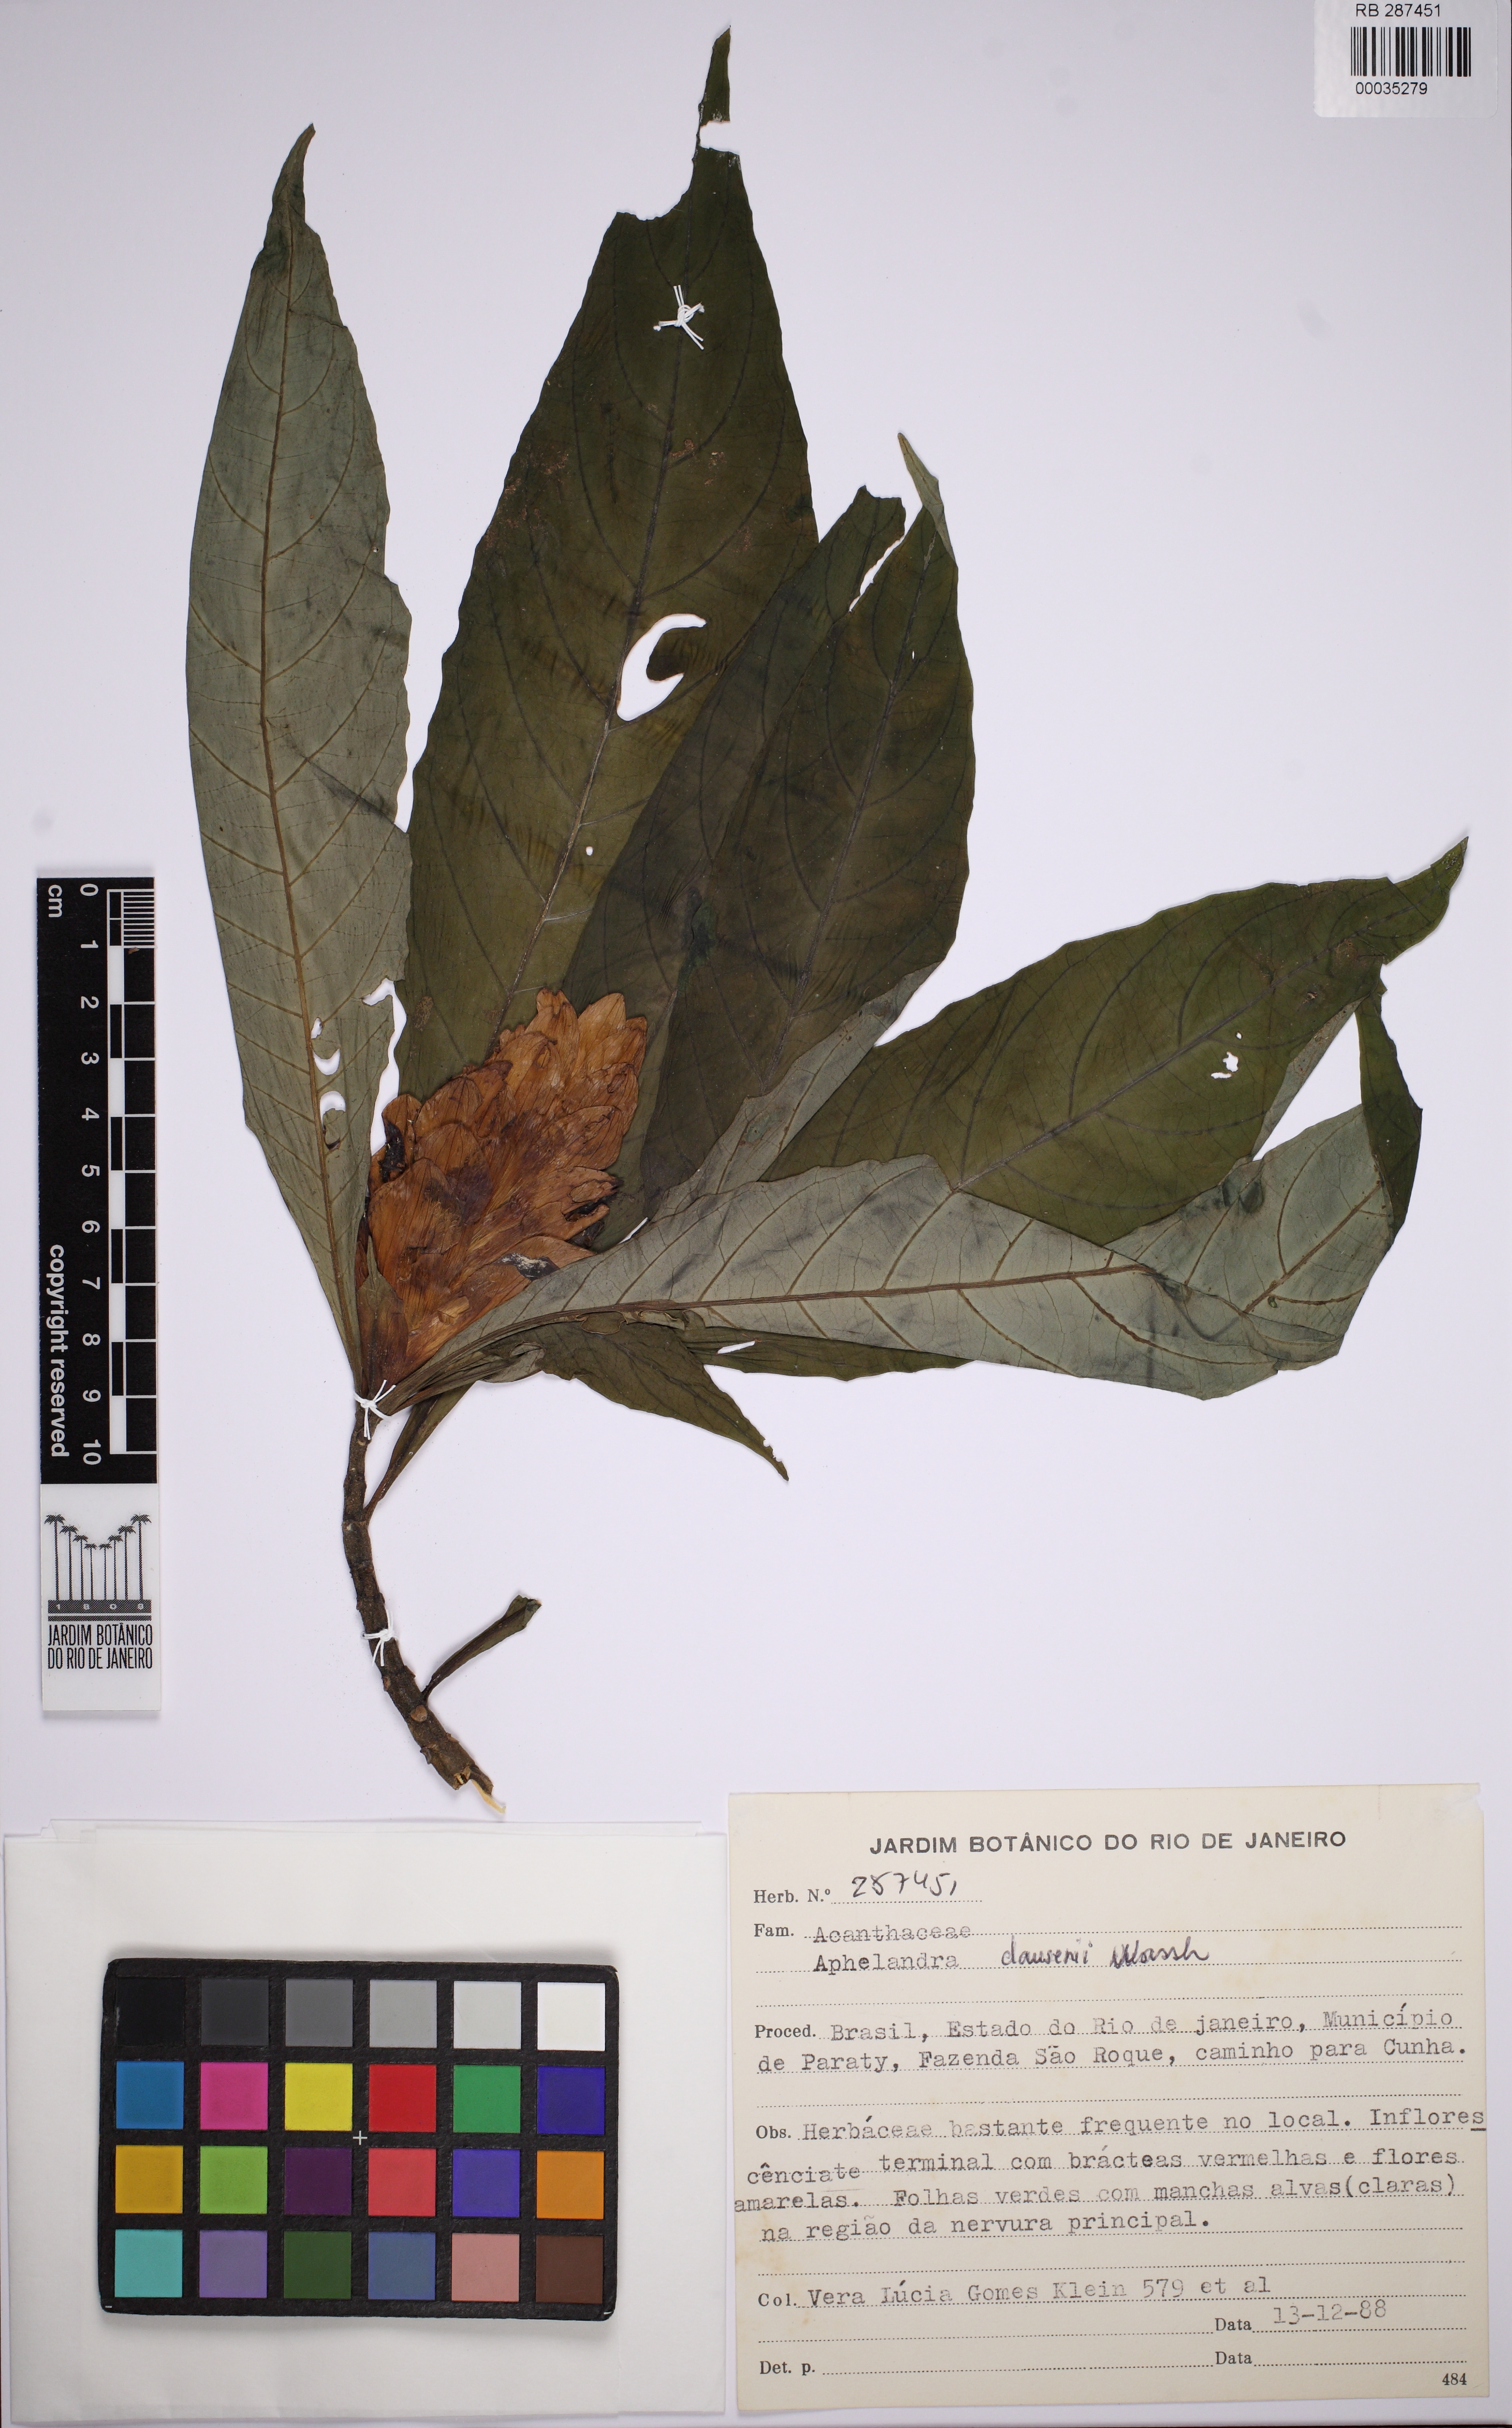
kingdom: Plantae
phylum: Tracheophyta
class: Magnoliopsida
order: Lamiales
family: Acanthaceae
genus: Aphelandra
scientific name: Aphelandra claussenii
